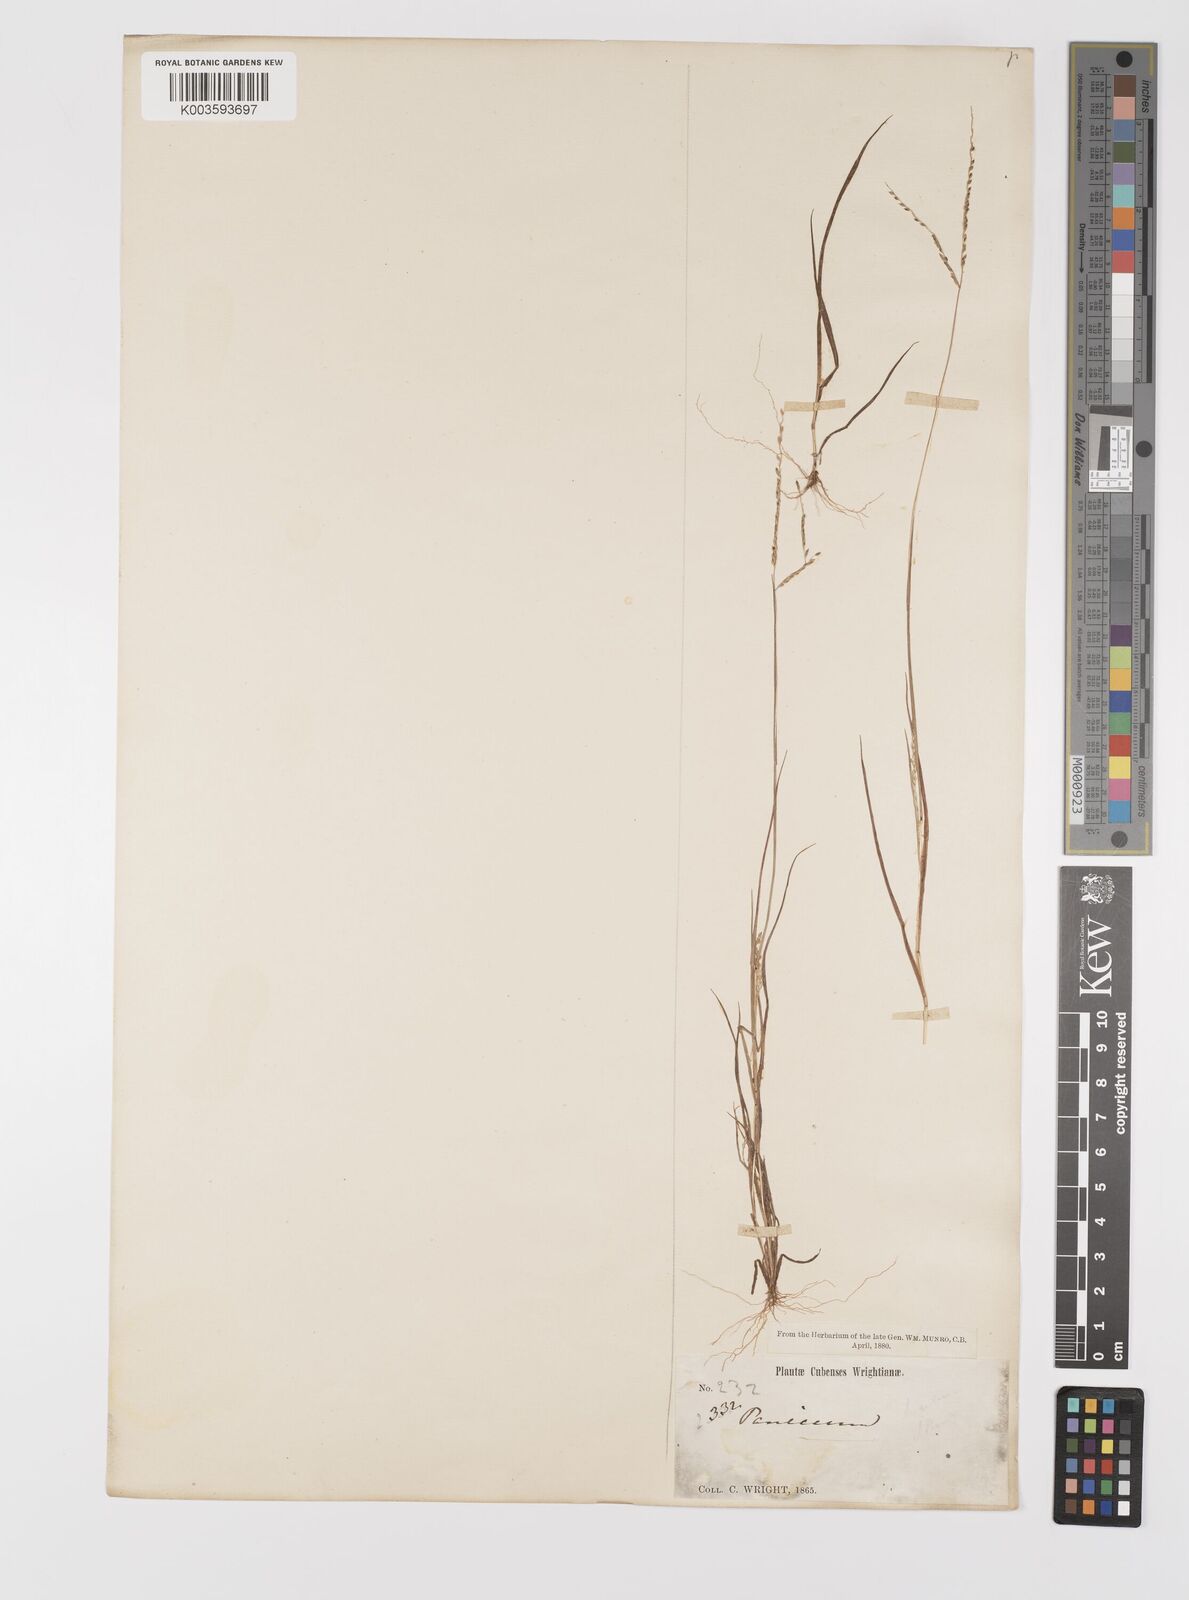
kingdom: Plantae
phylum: Tracheophyta
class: Liliopsida
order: Poales
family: Poaceae
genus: Digitaria
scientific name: Digitaria argillacea
